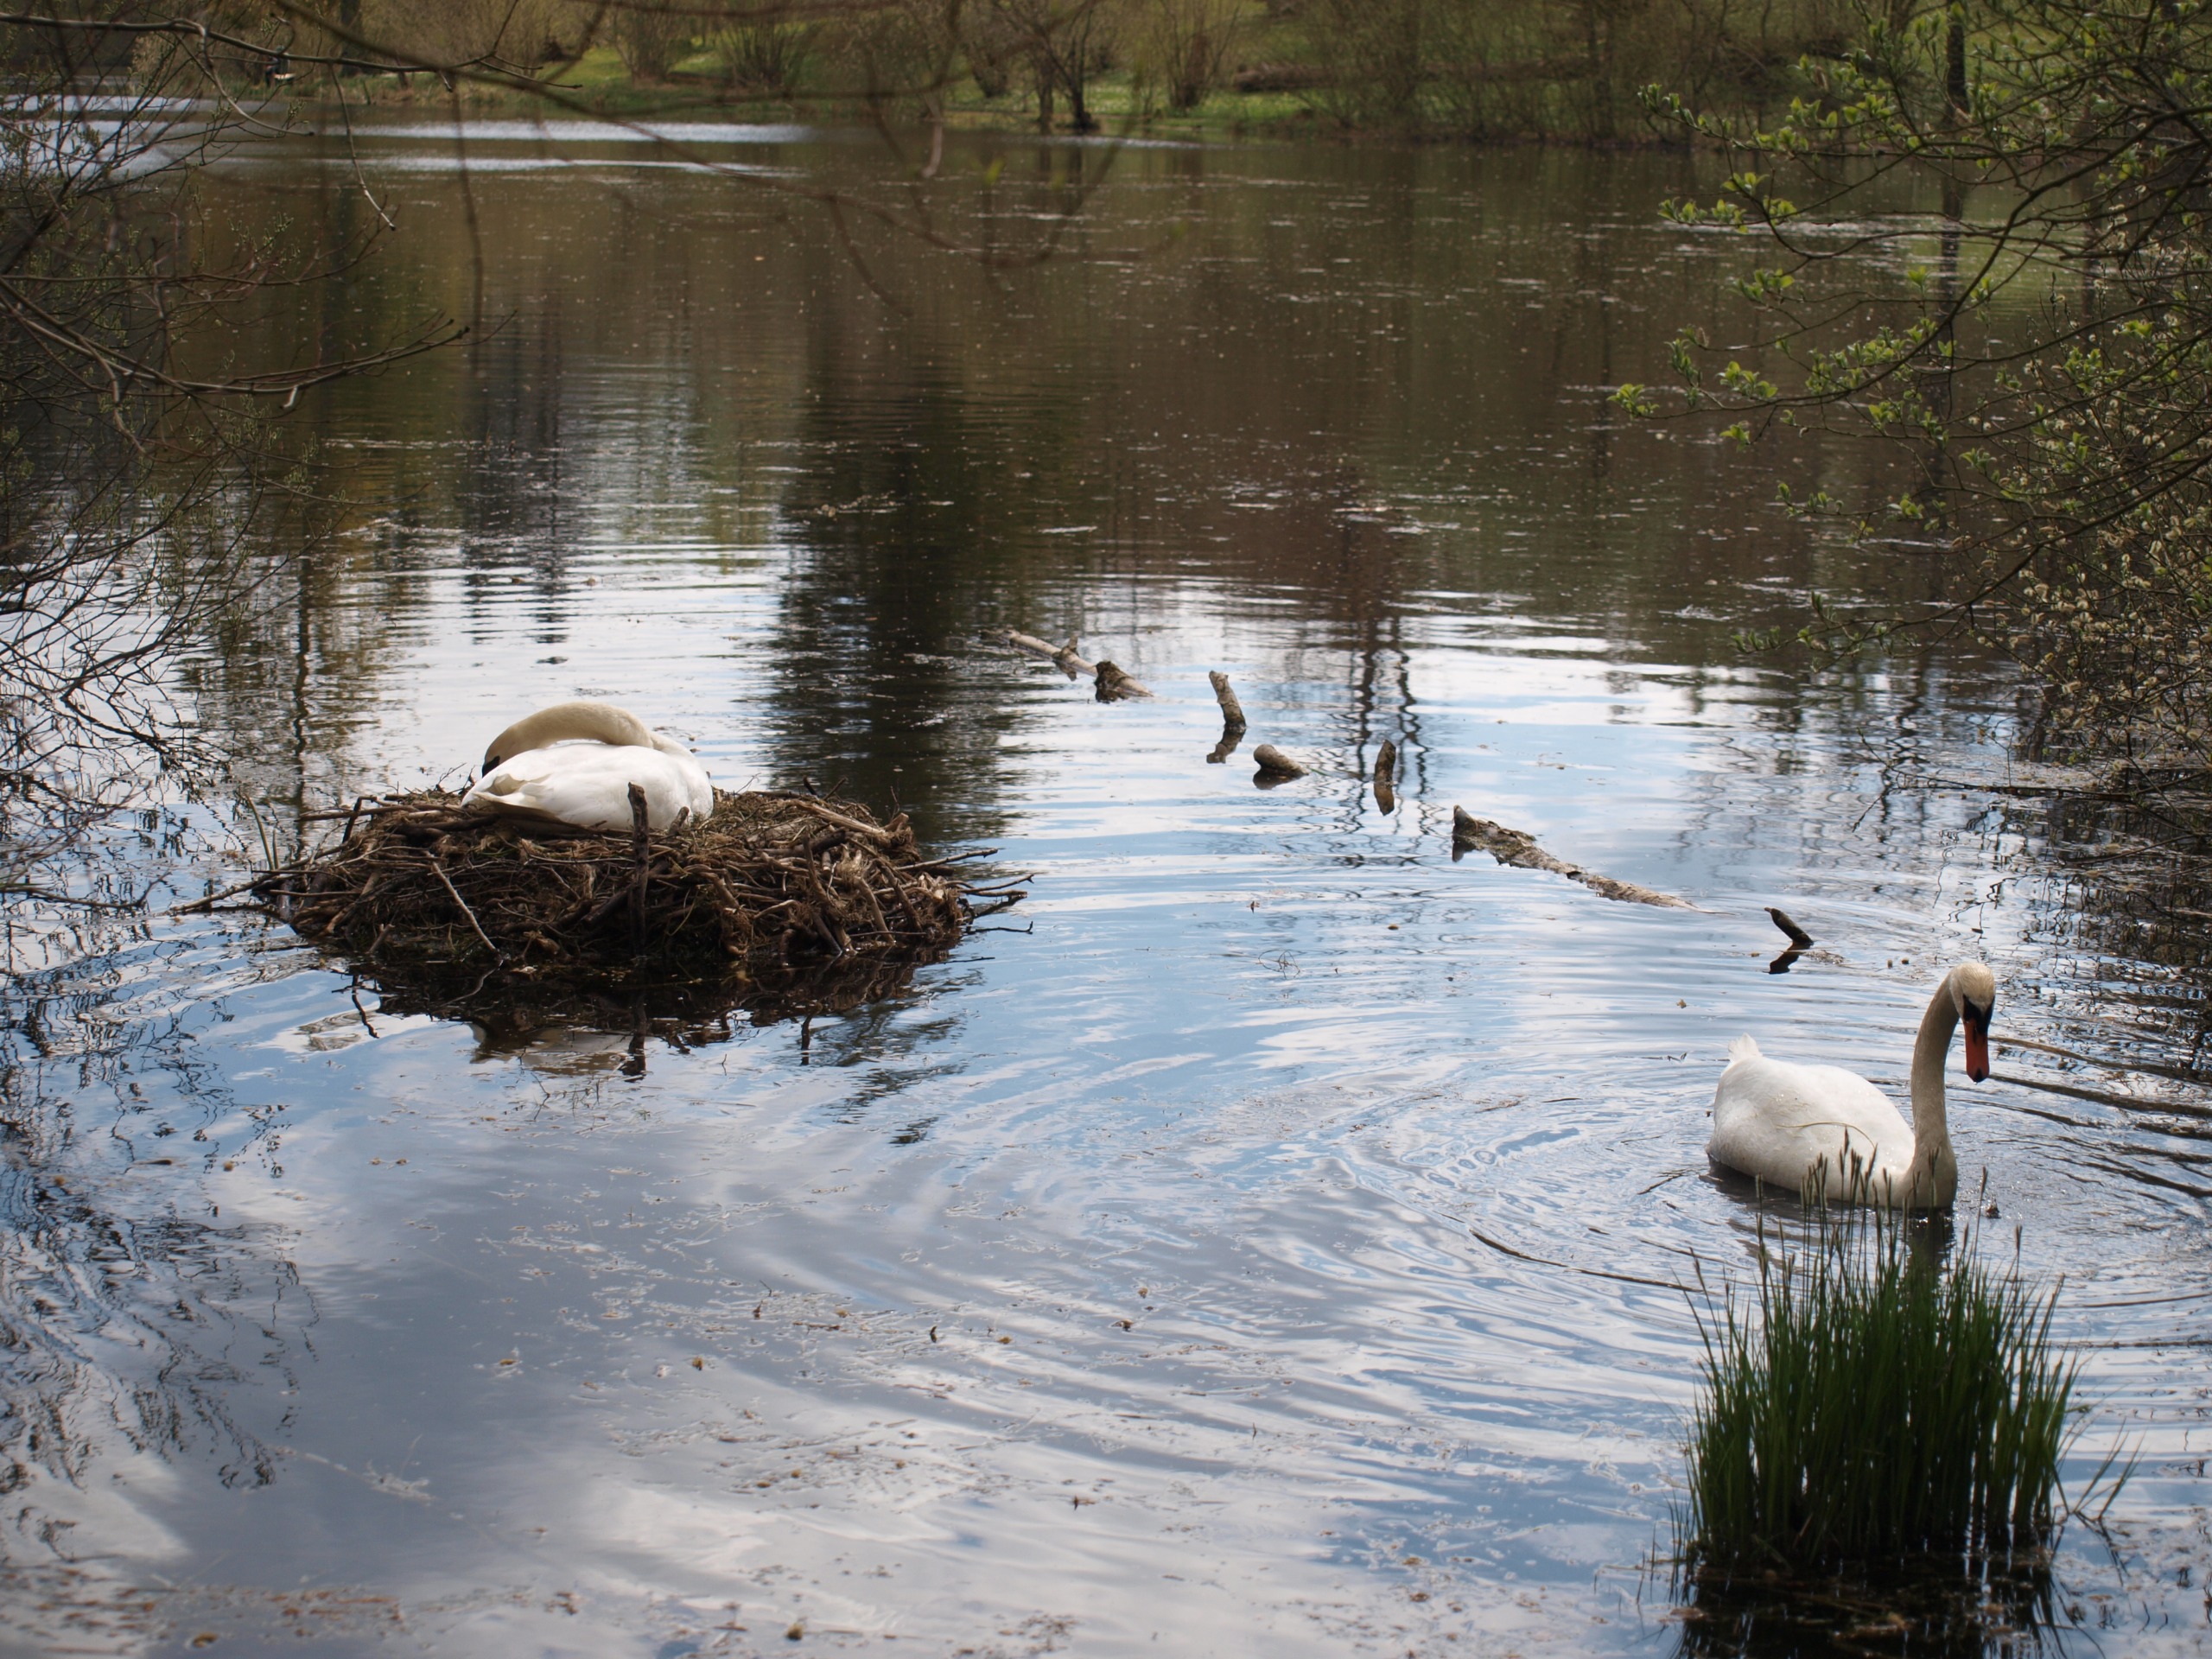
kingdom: Animalia
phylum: Chordata
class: Aves
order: Anseriformes
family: Anatidae
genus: Cygnus
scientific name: Cygnus olor
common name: Knopsvane
